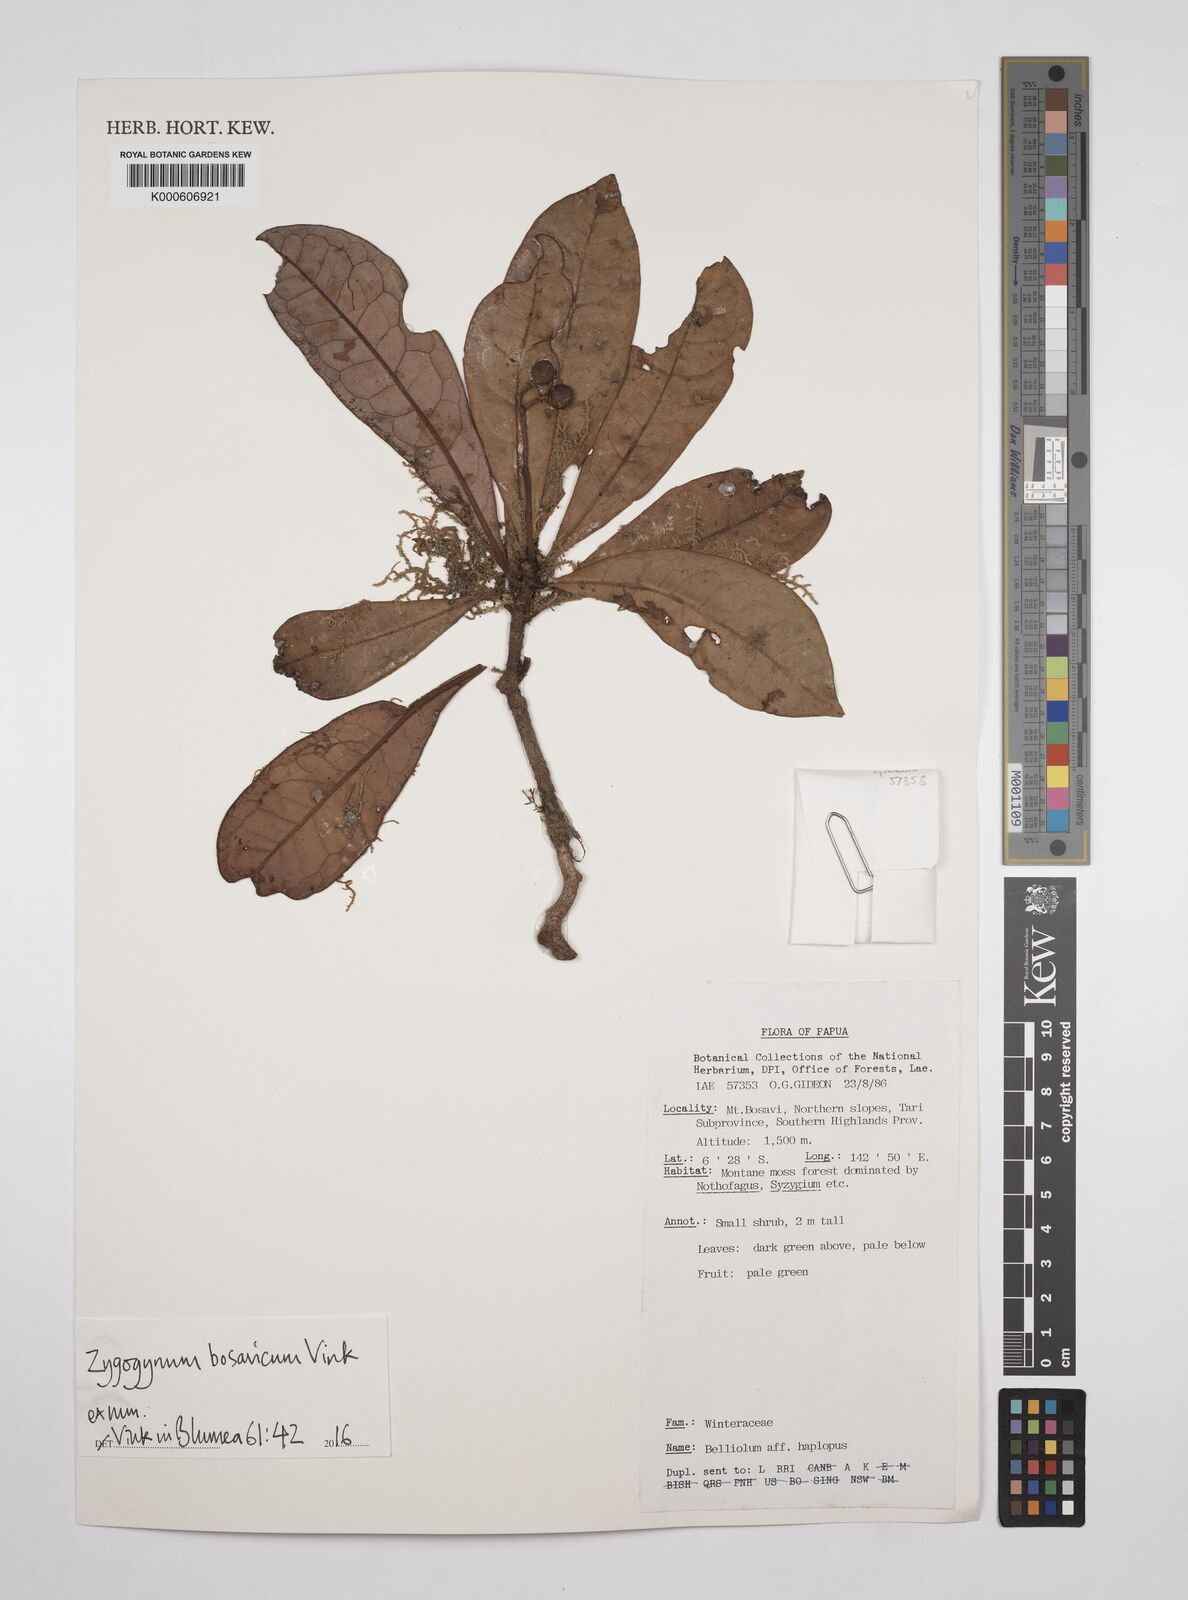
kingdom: Plantae
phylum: Tracheophyta
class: Magnoliopsida
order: Canellales
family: Winteraceae
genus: Zygogynum
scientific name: Zygogynum bosavicum
